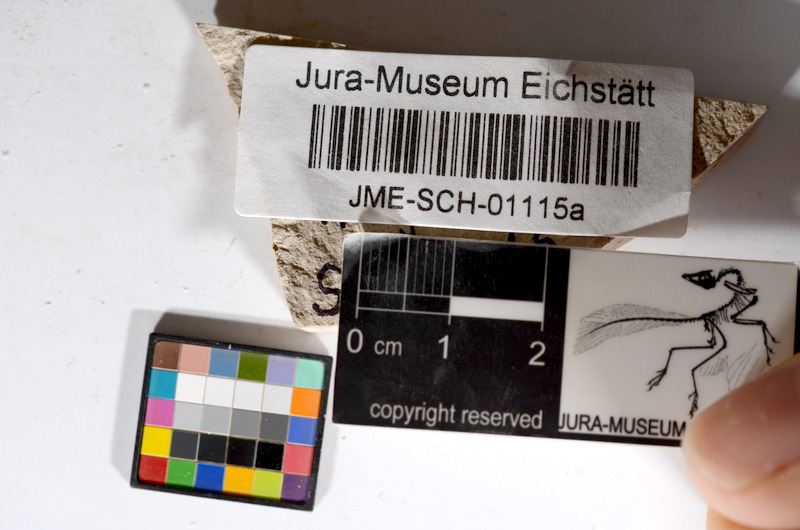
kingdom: Animalia
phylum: Chordata
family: Ascalaboidae
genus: Tharsis
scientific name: Tharsis dubius
